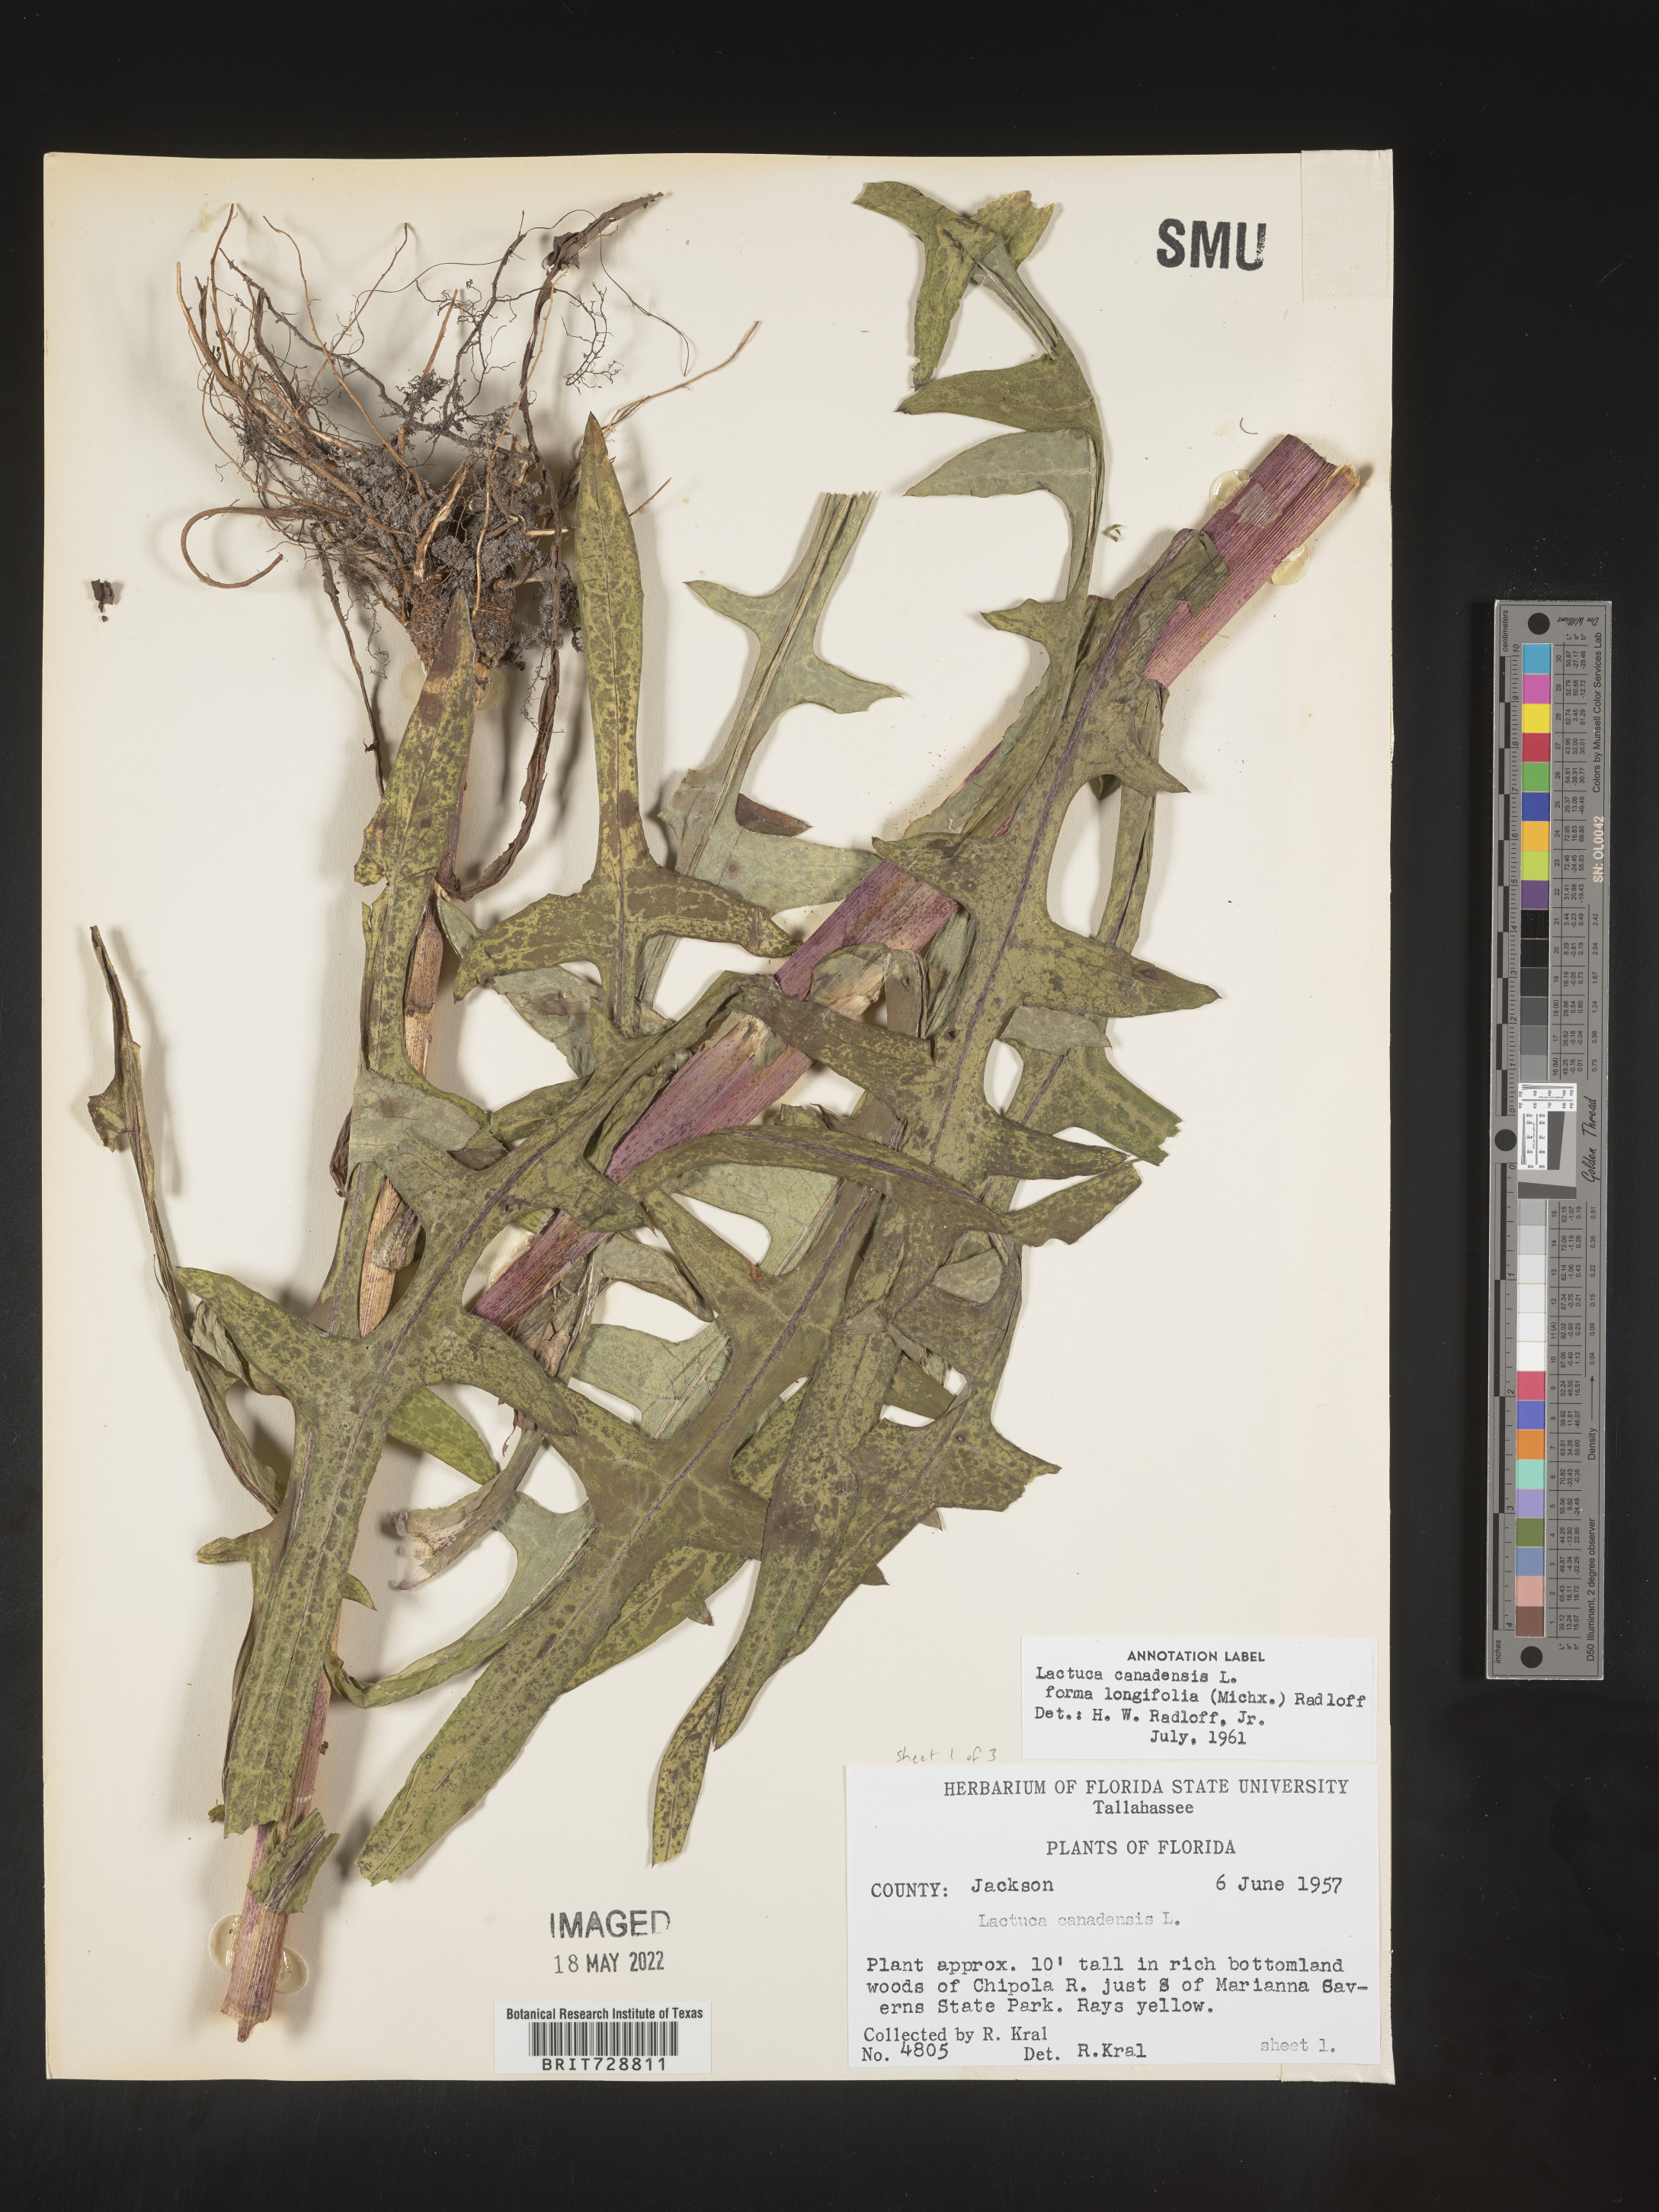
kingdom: Plantae
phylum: Tracheophyta
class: Magnoliopsida
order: Asterales
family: Asteraceae
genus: Lactuca
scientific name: Lactuca canadensis
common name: Canada lettuce
